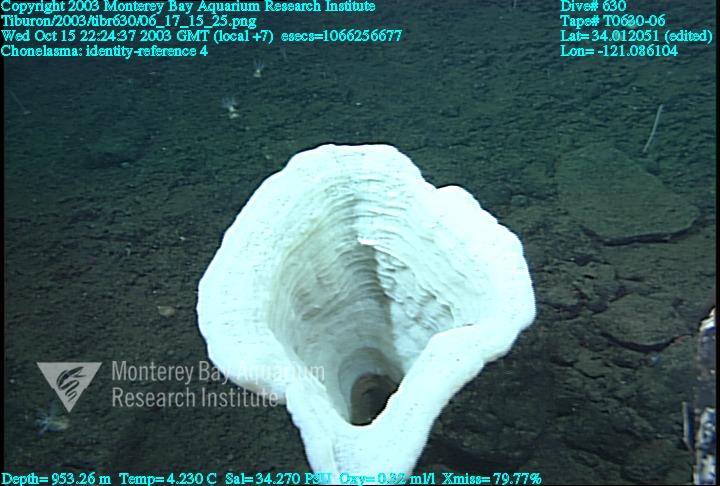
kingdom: Animalia
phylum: Porifera
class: Hexactinellida
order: Sceptrulophora
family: Euretidae
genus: Chonelasma
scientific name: Chonelasma
